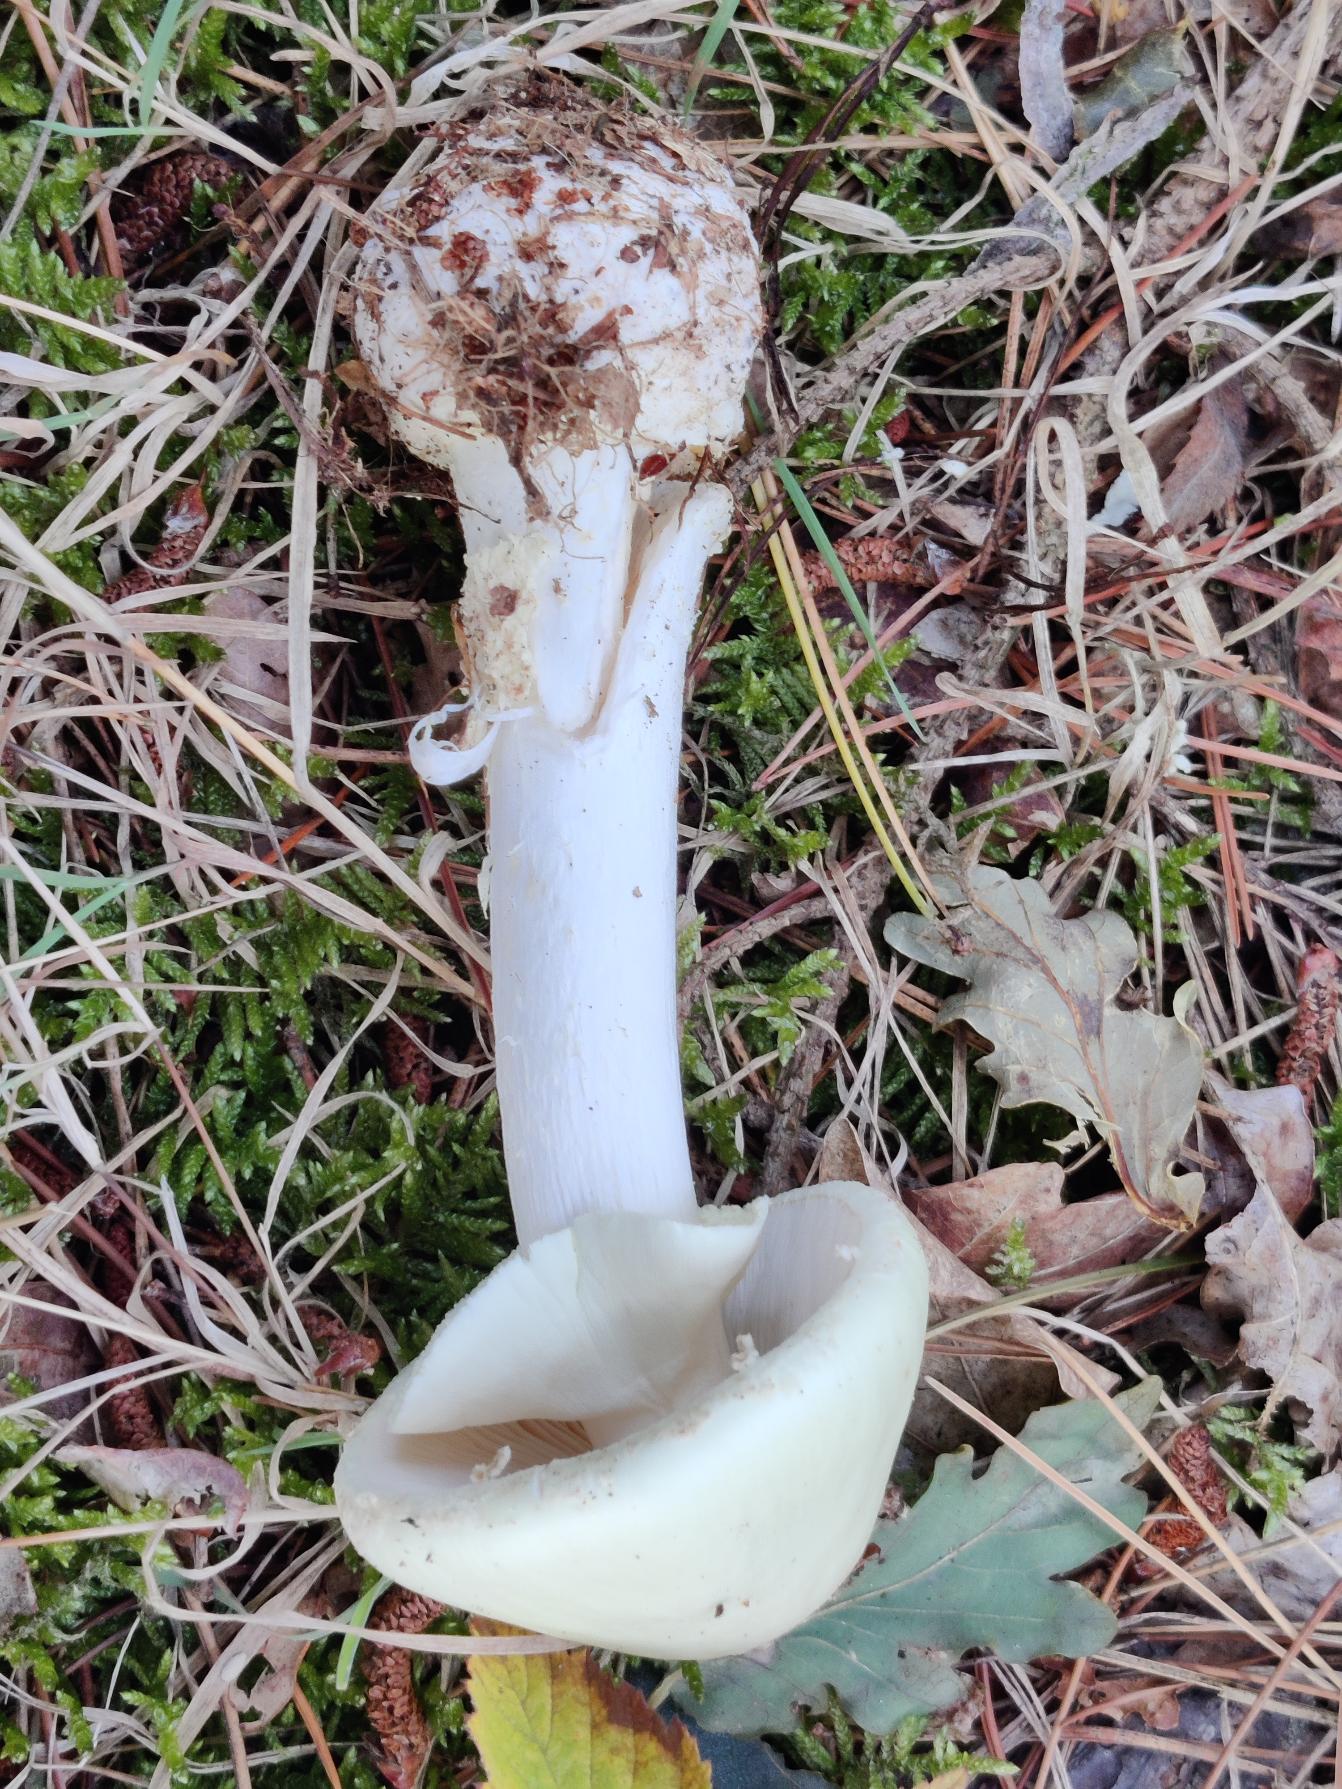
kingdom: Fungi
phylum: Basidiomycota
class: Agaricomycetes
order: Agaricales
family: Amanitaceae
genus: Amanita
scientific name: Amanita citrina
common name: Kugleknoldet fluesvamp
